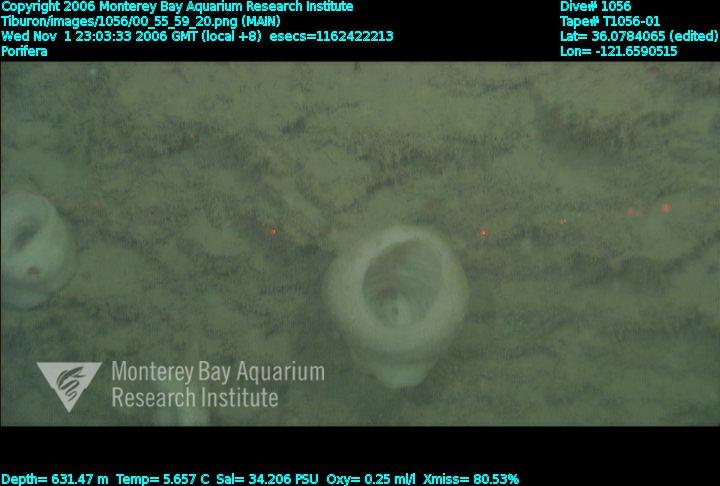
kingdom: Animalia
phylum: Porifera
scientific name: Porifera
